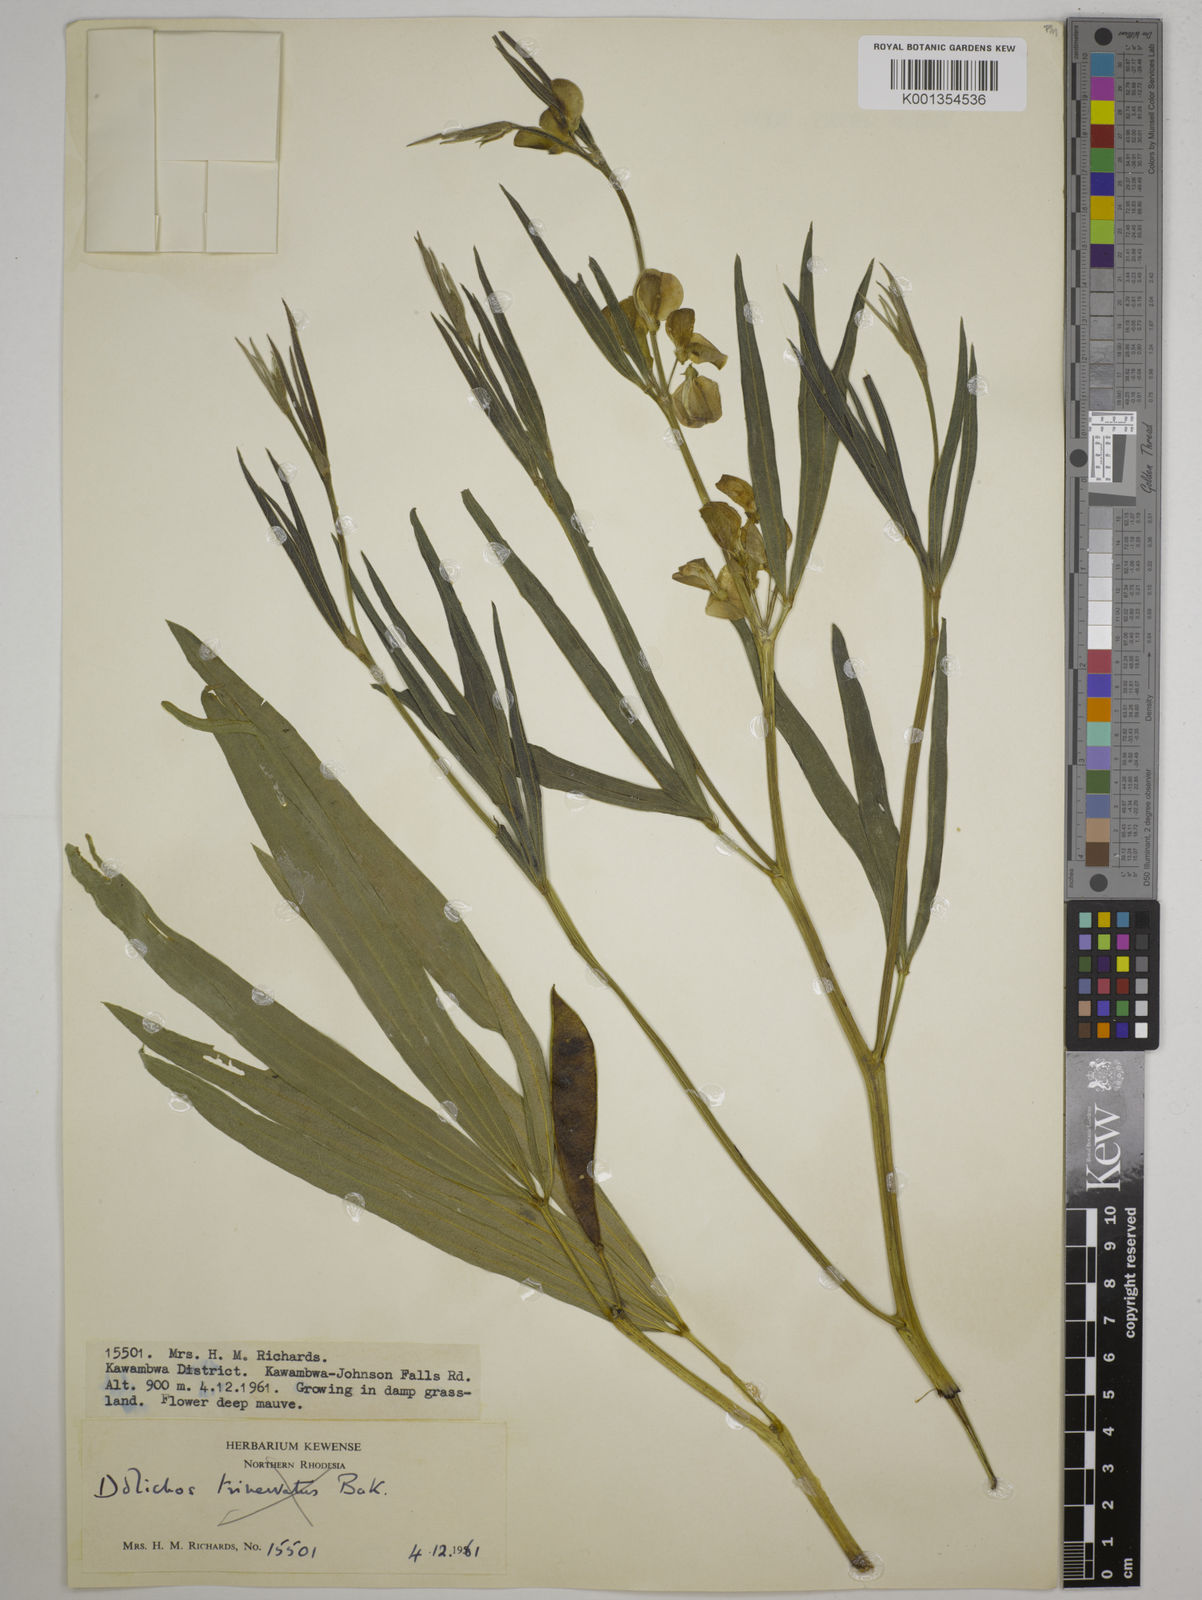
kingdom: Plantae
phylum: Tracheophyta
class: Magnoliopsida
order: Fabales
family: Fabaceae
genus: Dolichos
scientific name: Dolichos petiolatus
